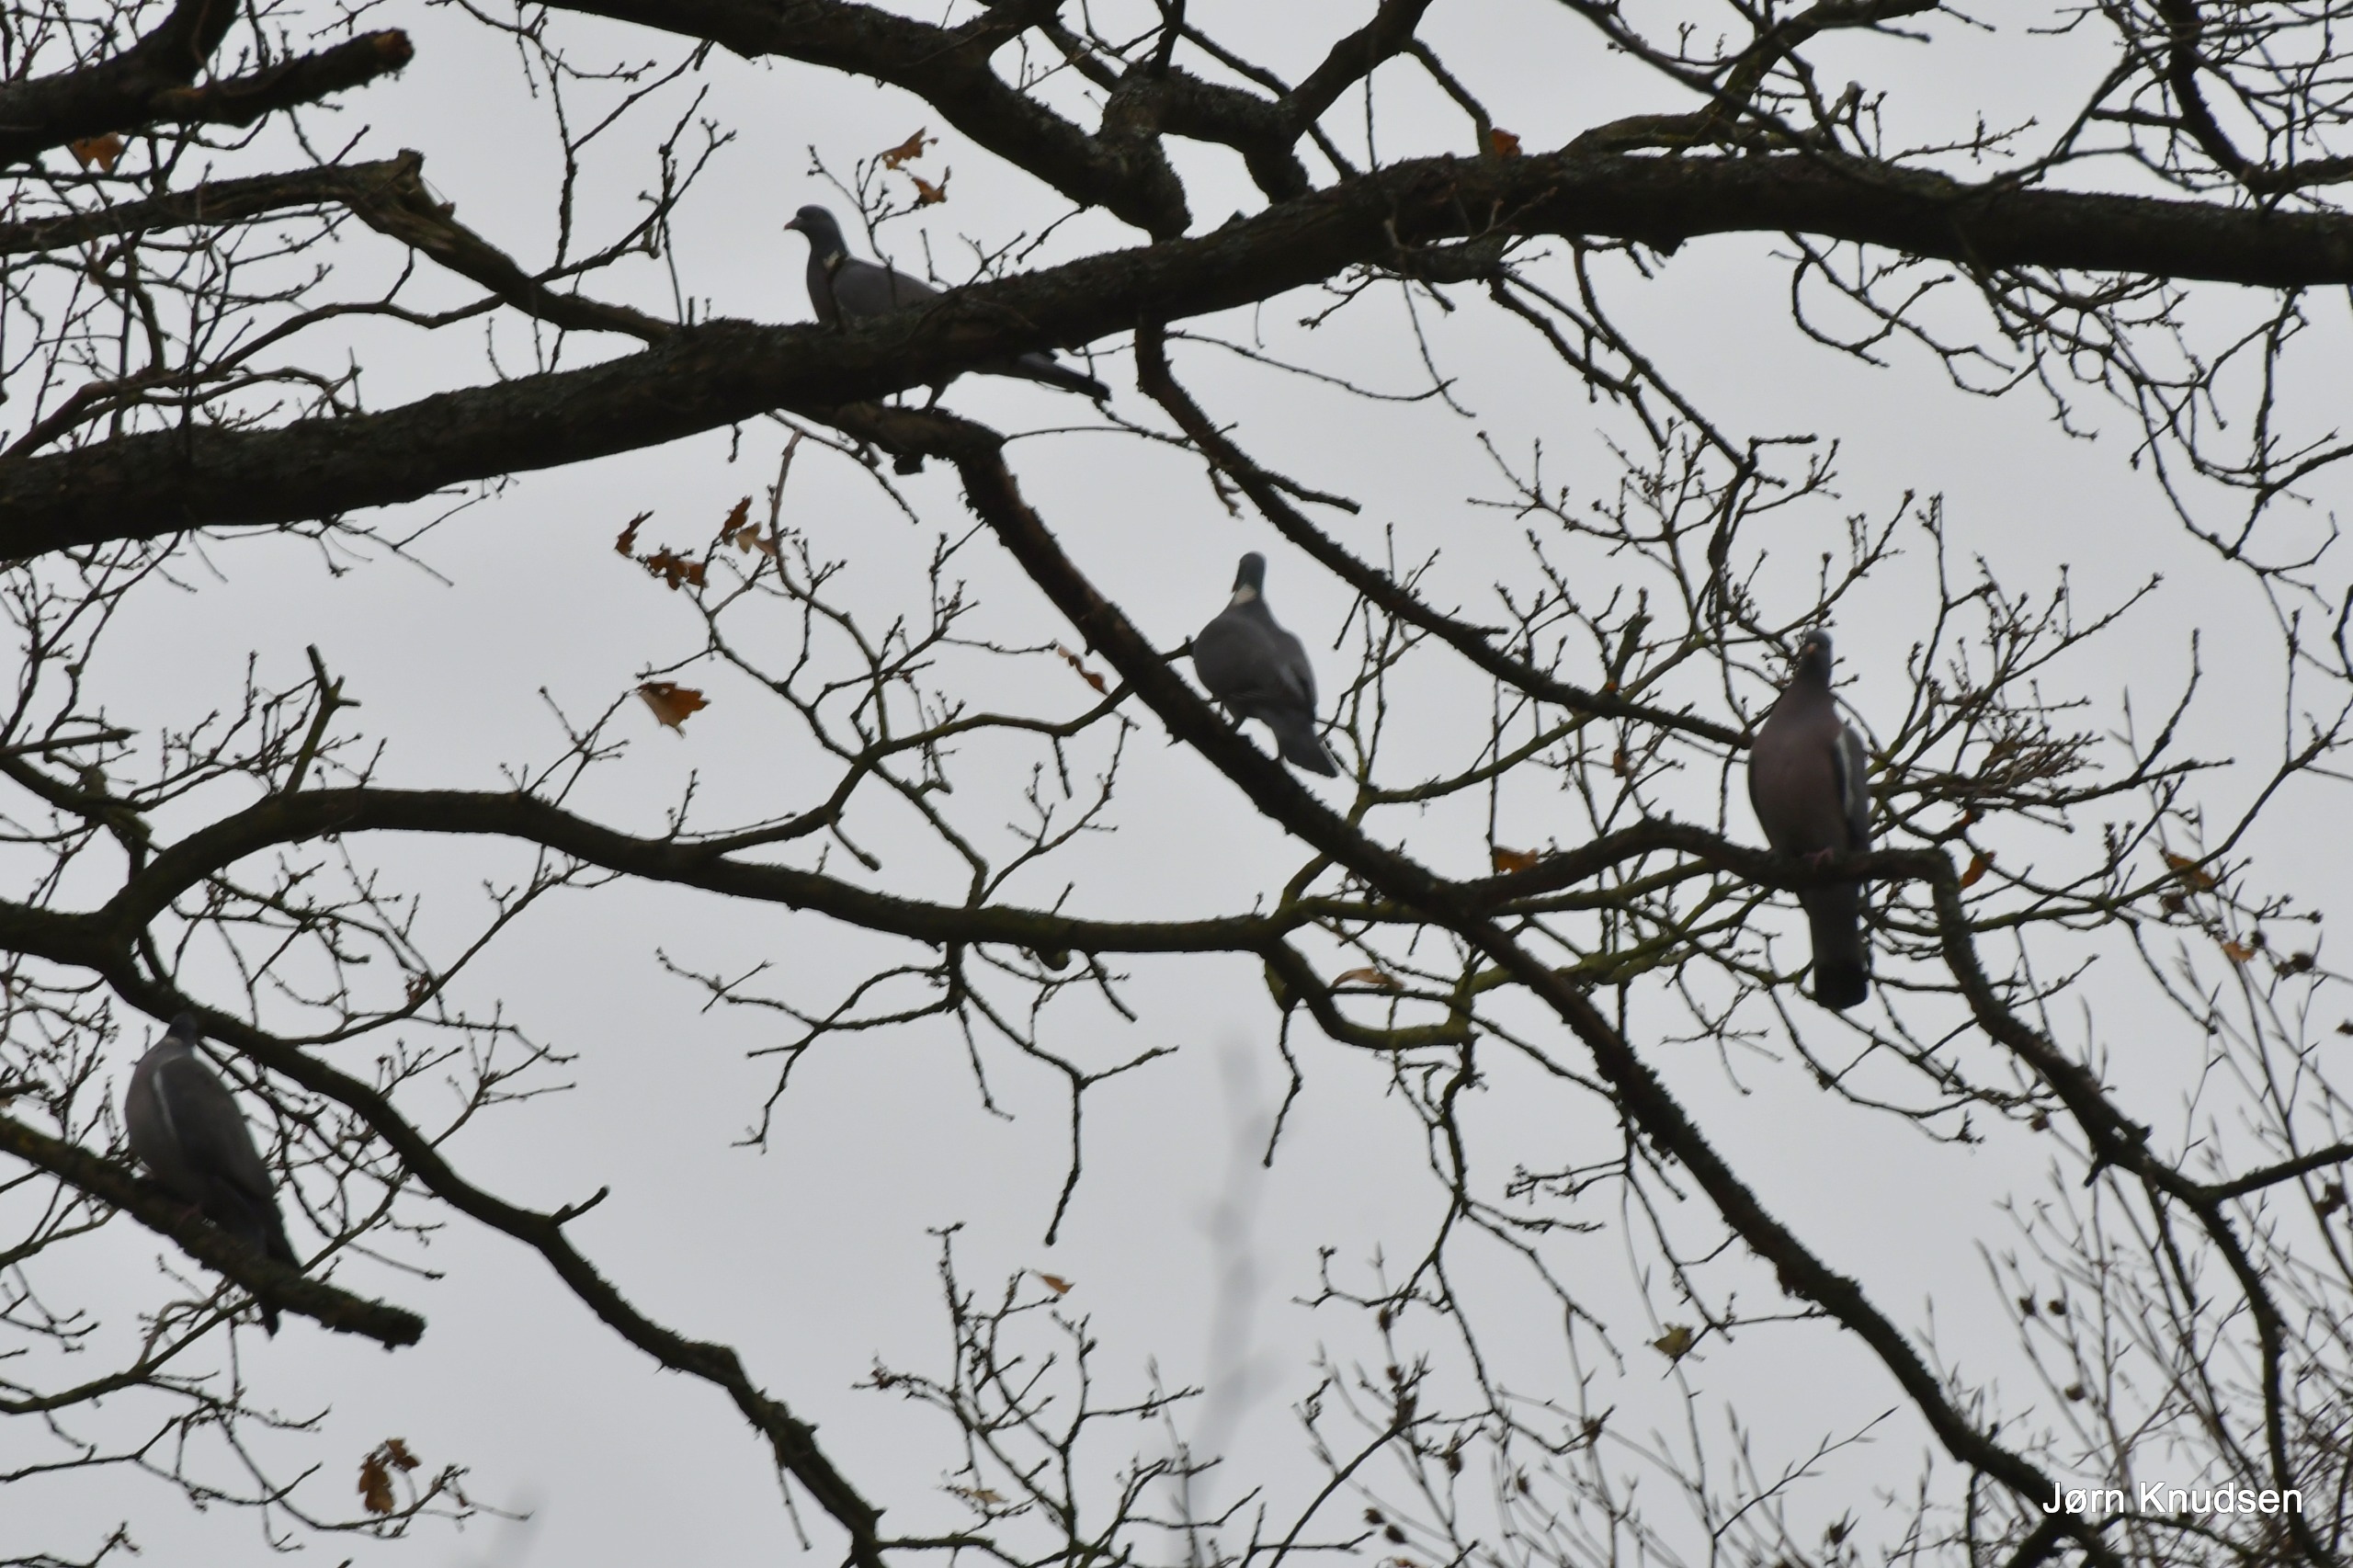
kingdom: Animalia
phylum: Chordata
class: Aves
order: Columbiformes
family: Columbidae
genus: Columba
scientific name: Columba palumbus
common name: Ringdue
